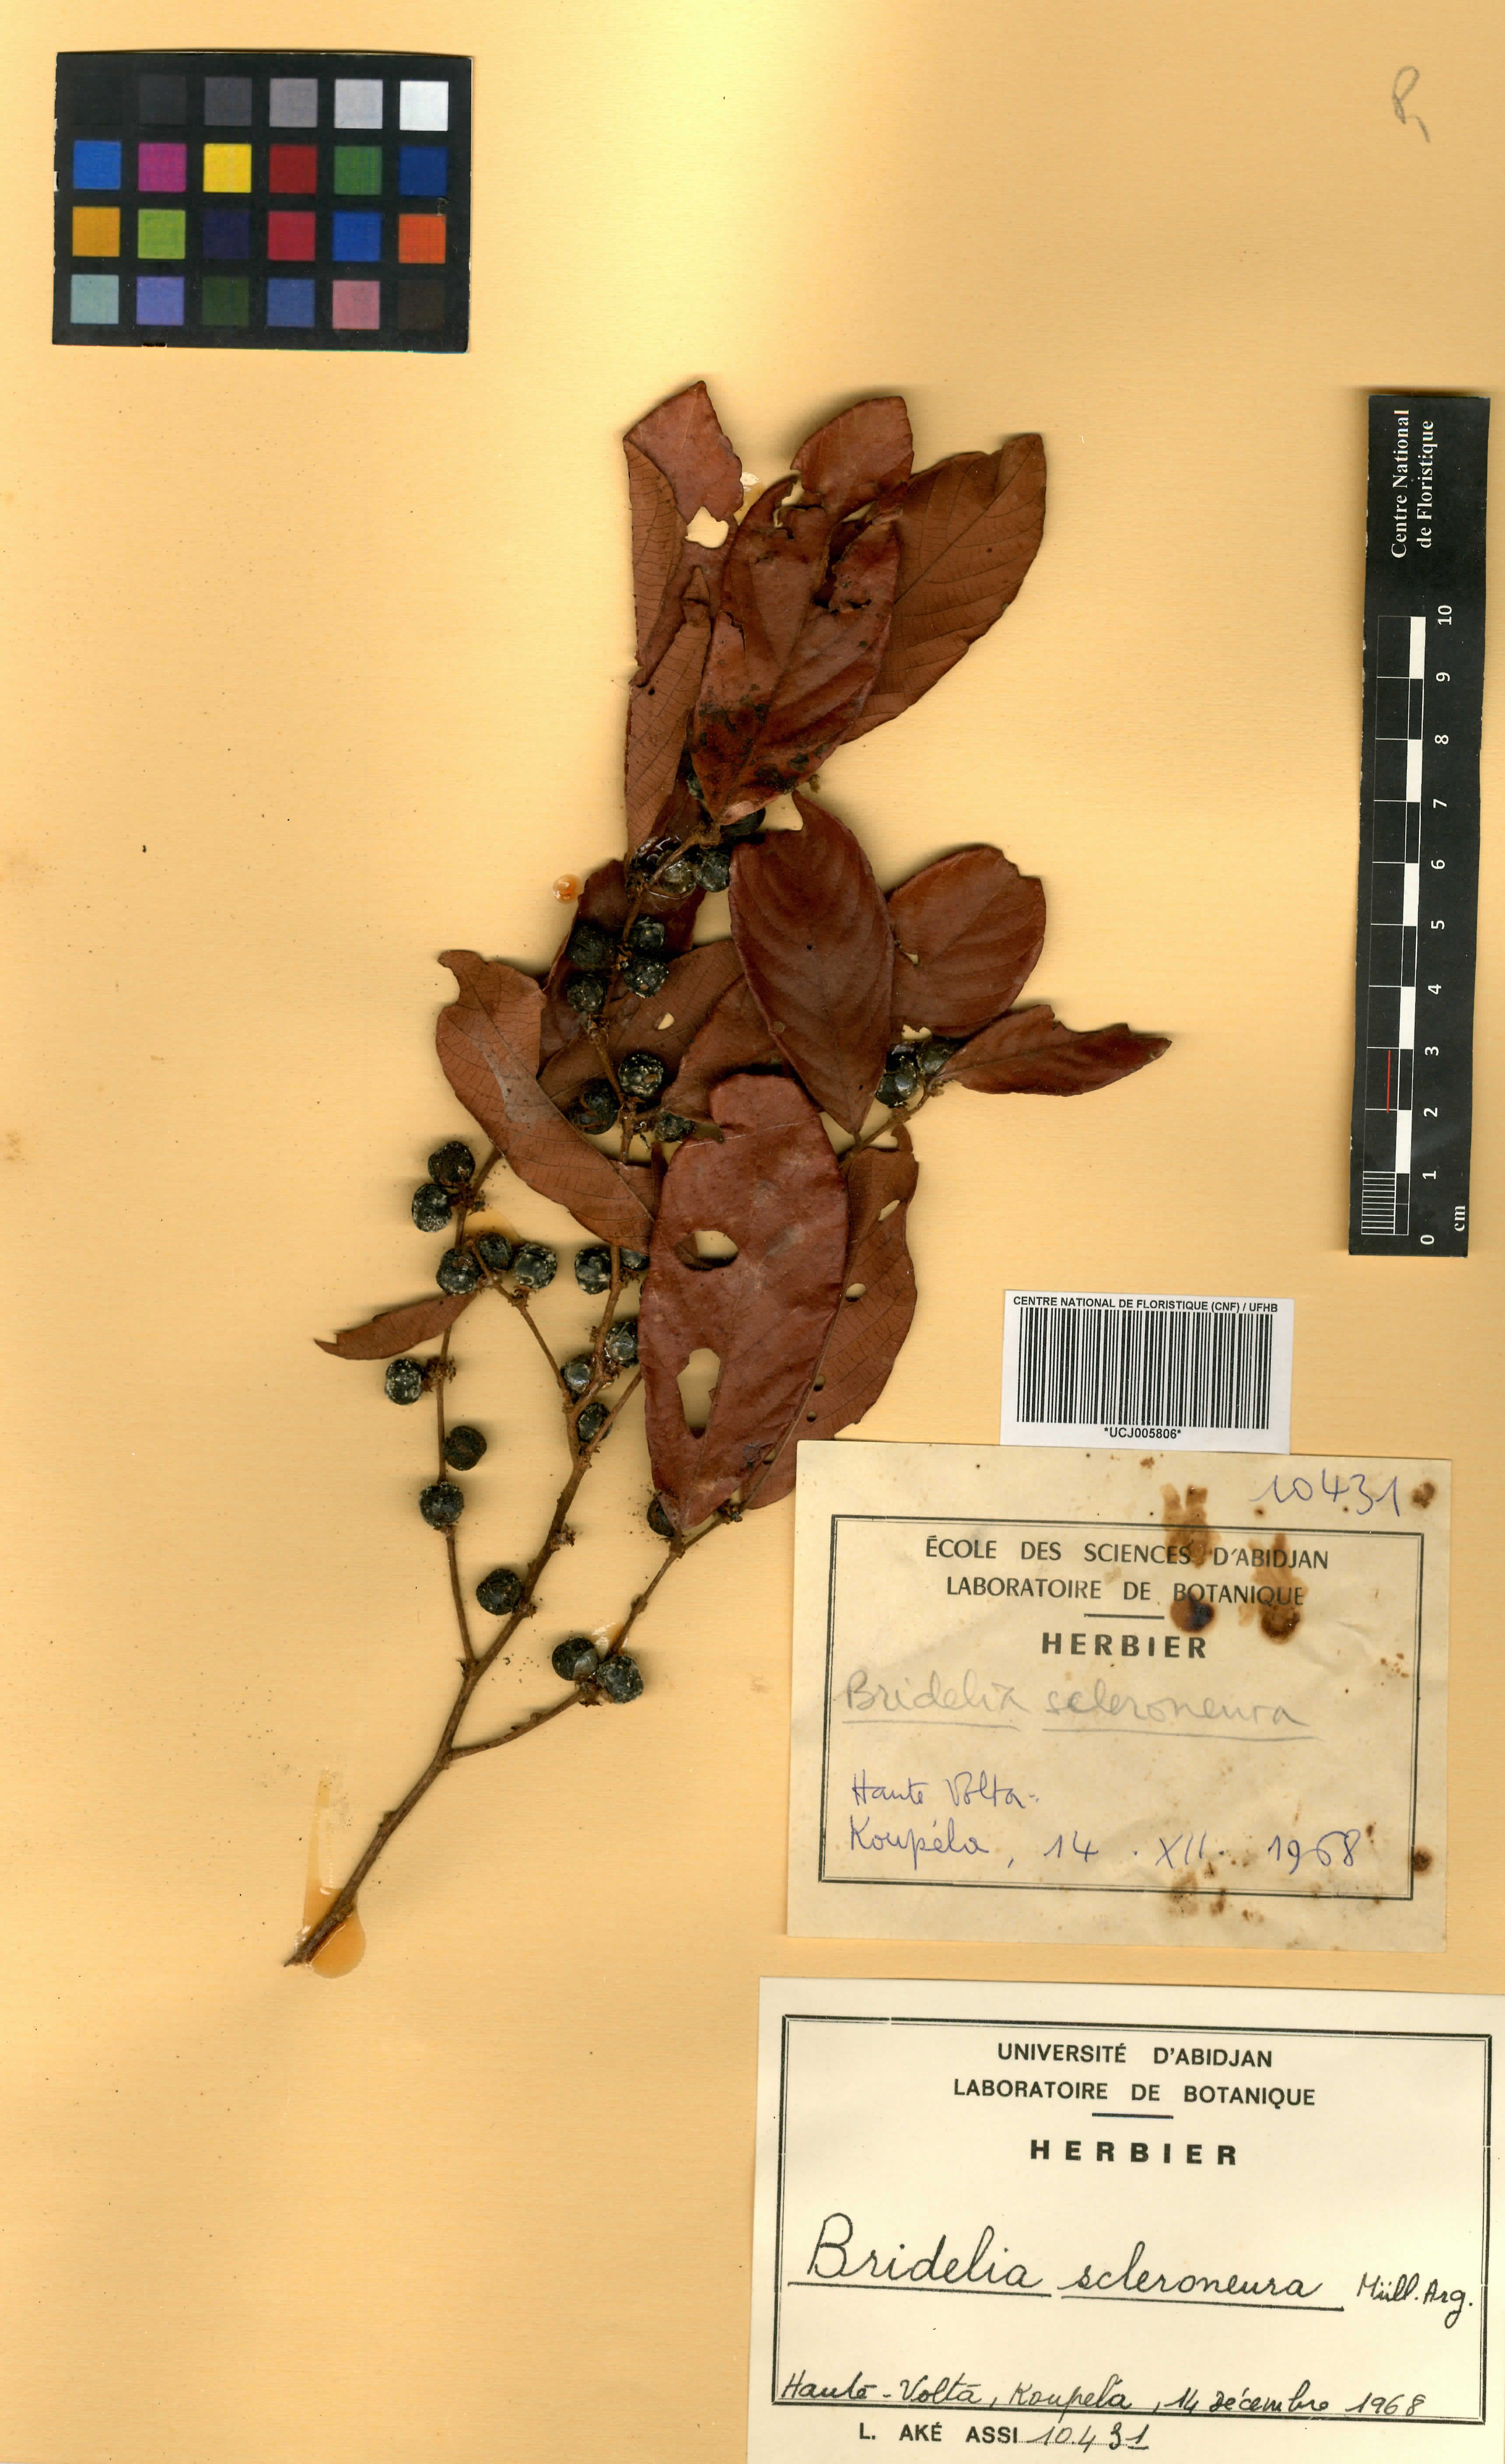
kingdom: Plantae
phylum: Tracheophyta
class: Magnoliopsida
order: Malpighiales
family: Phyllanthaceae
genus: Bridelia
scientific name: Bridelia scleroneura
